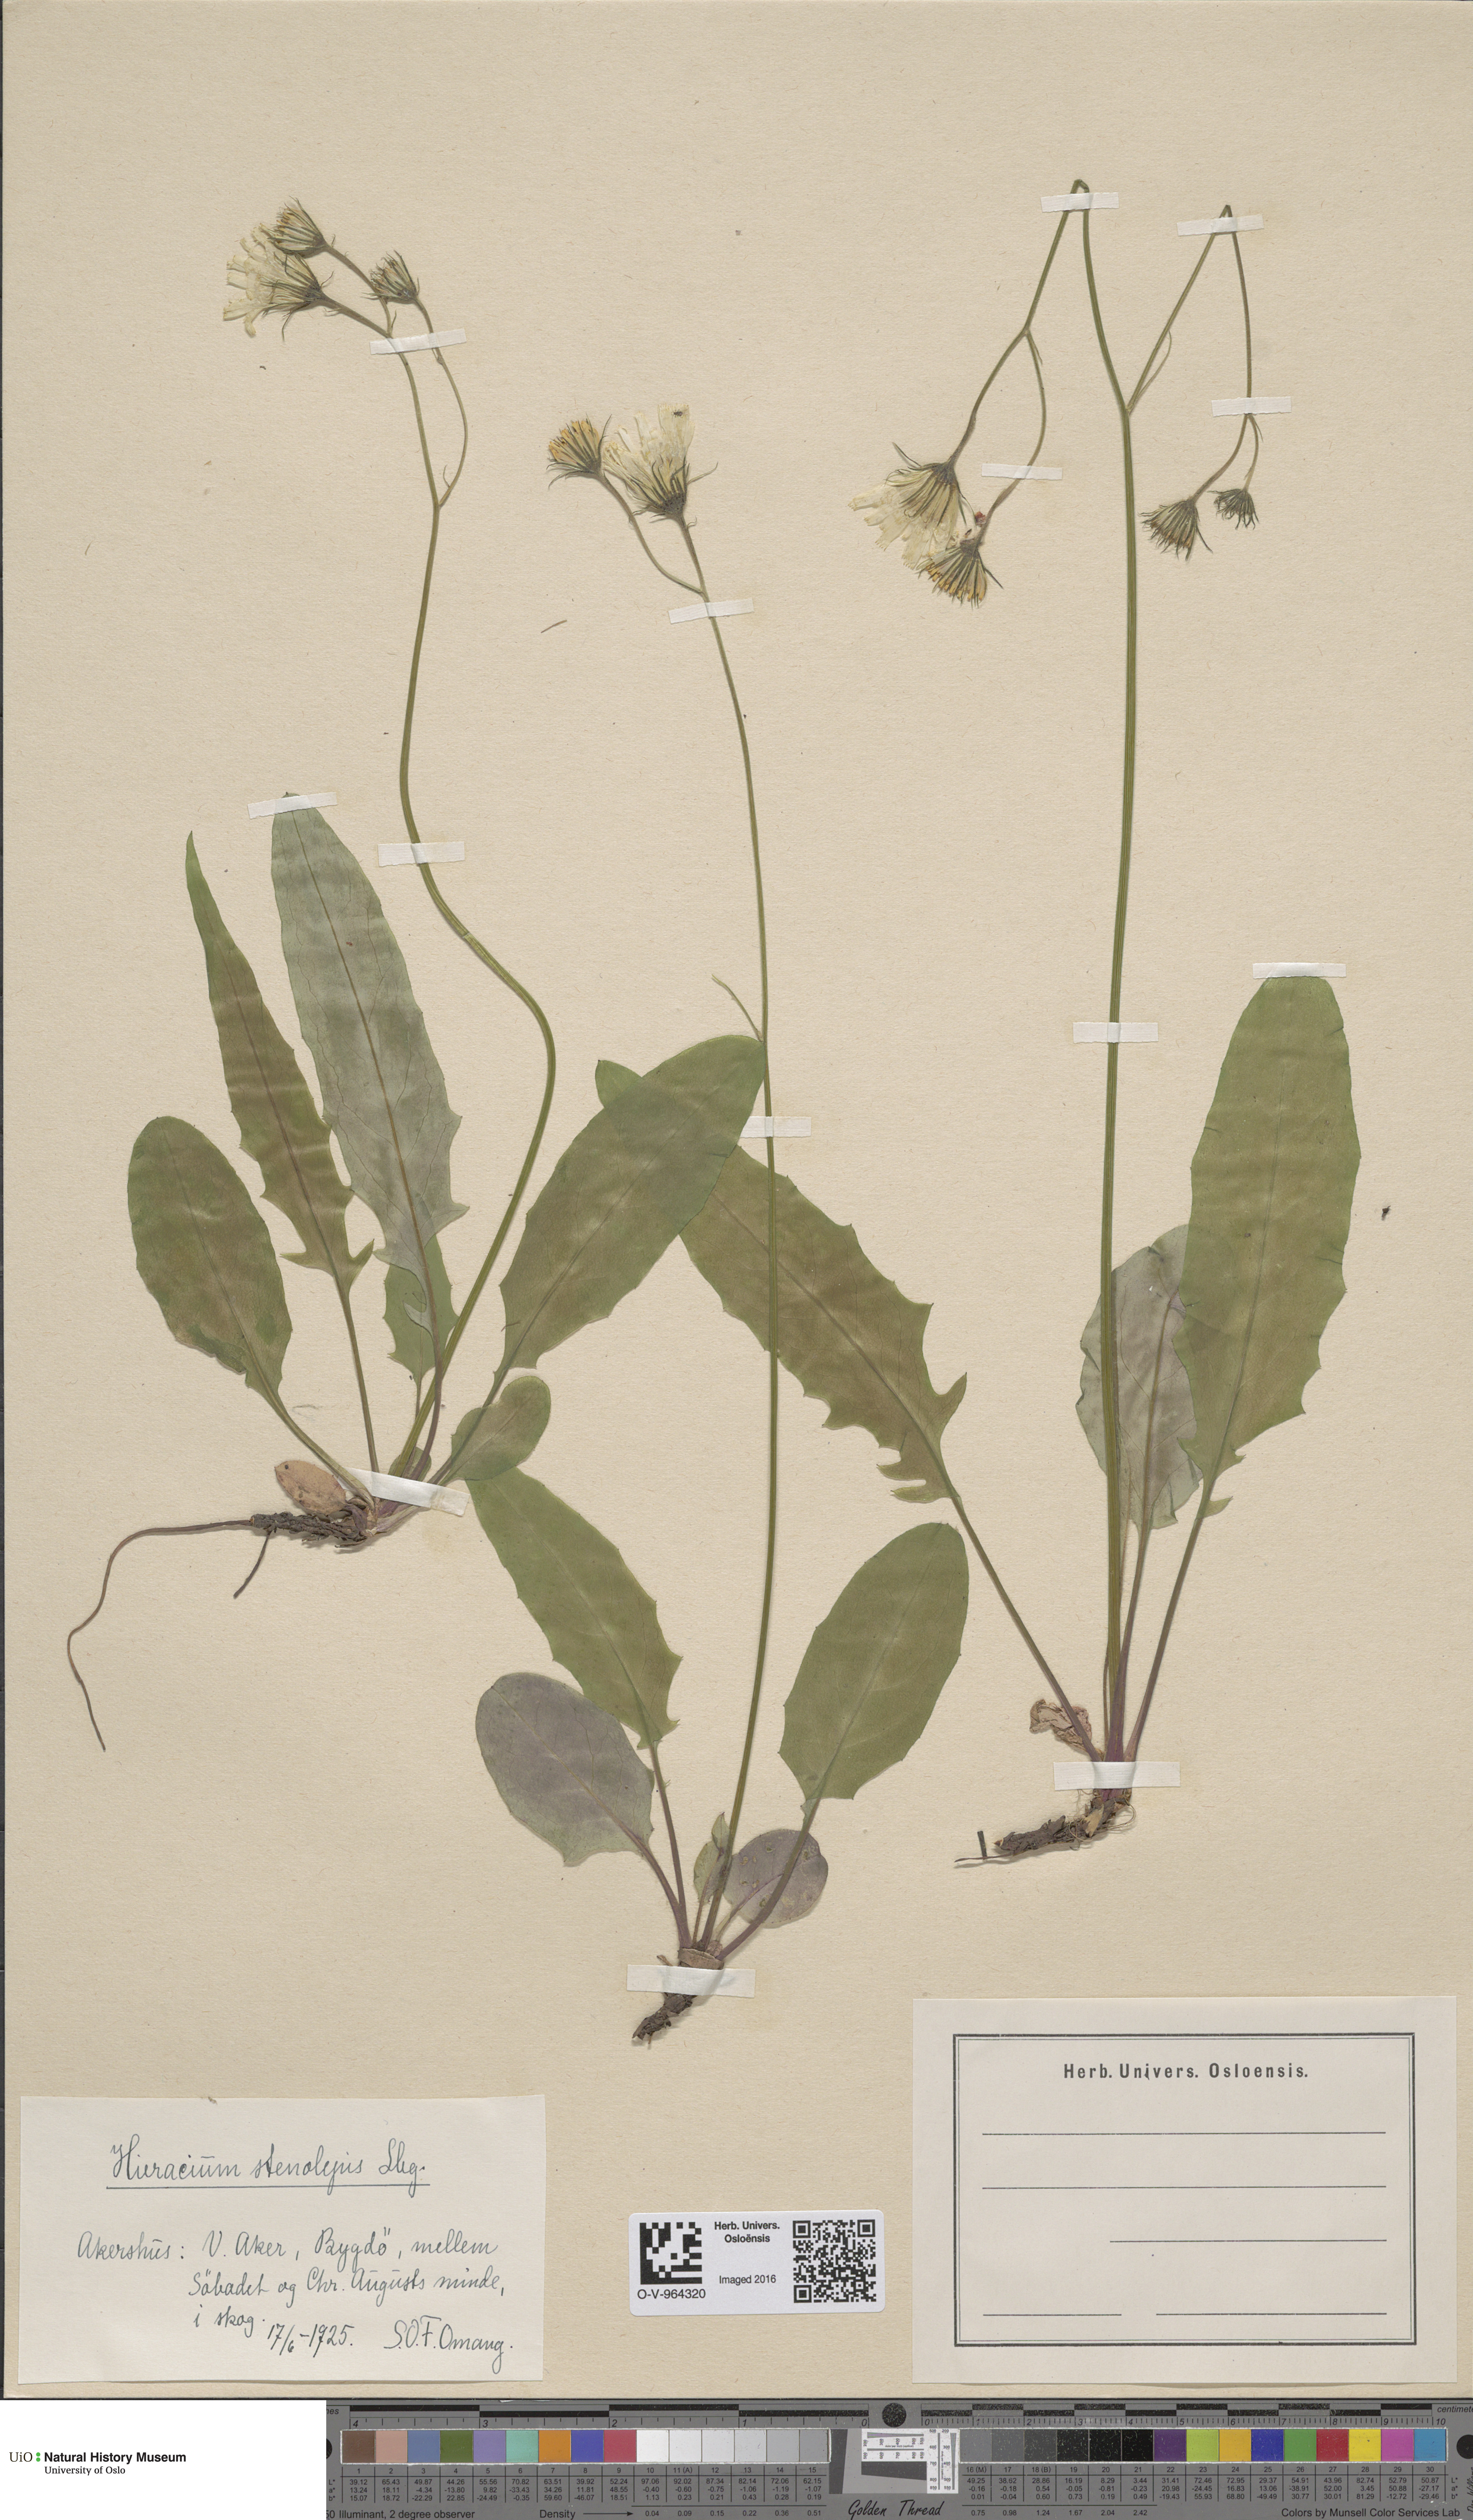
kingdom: Plantae
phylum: Tracheophyta
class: Magnoliopsida
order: Asterales
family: Asteraceae
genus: Hieracium
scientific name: Hieracium bifidum
